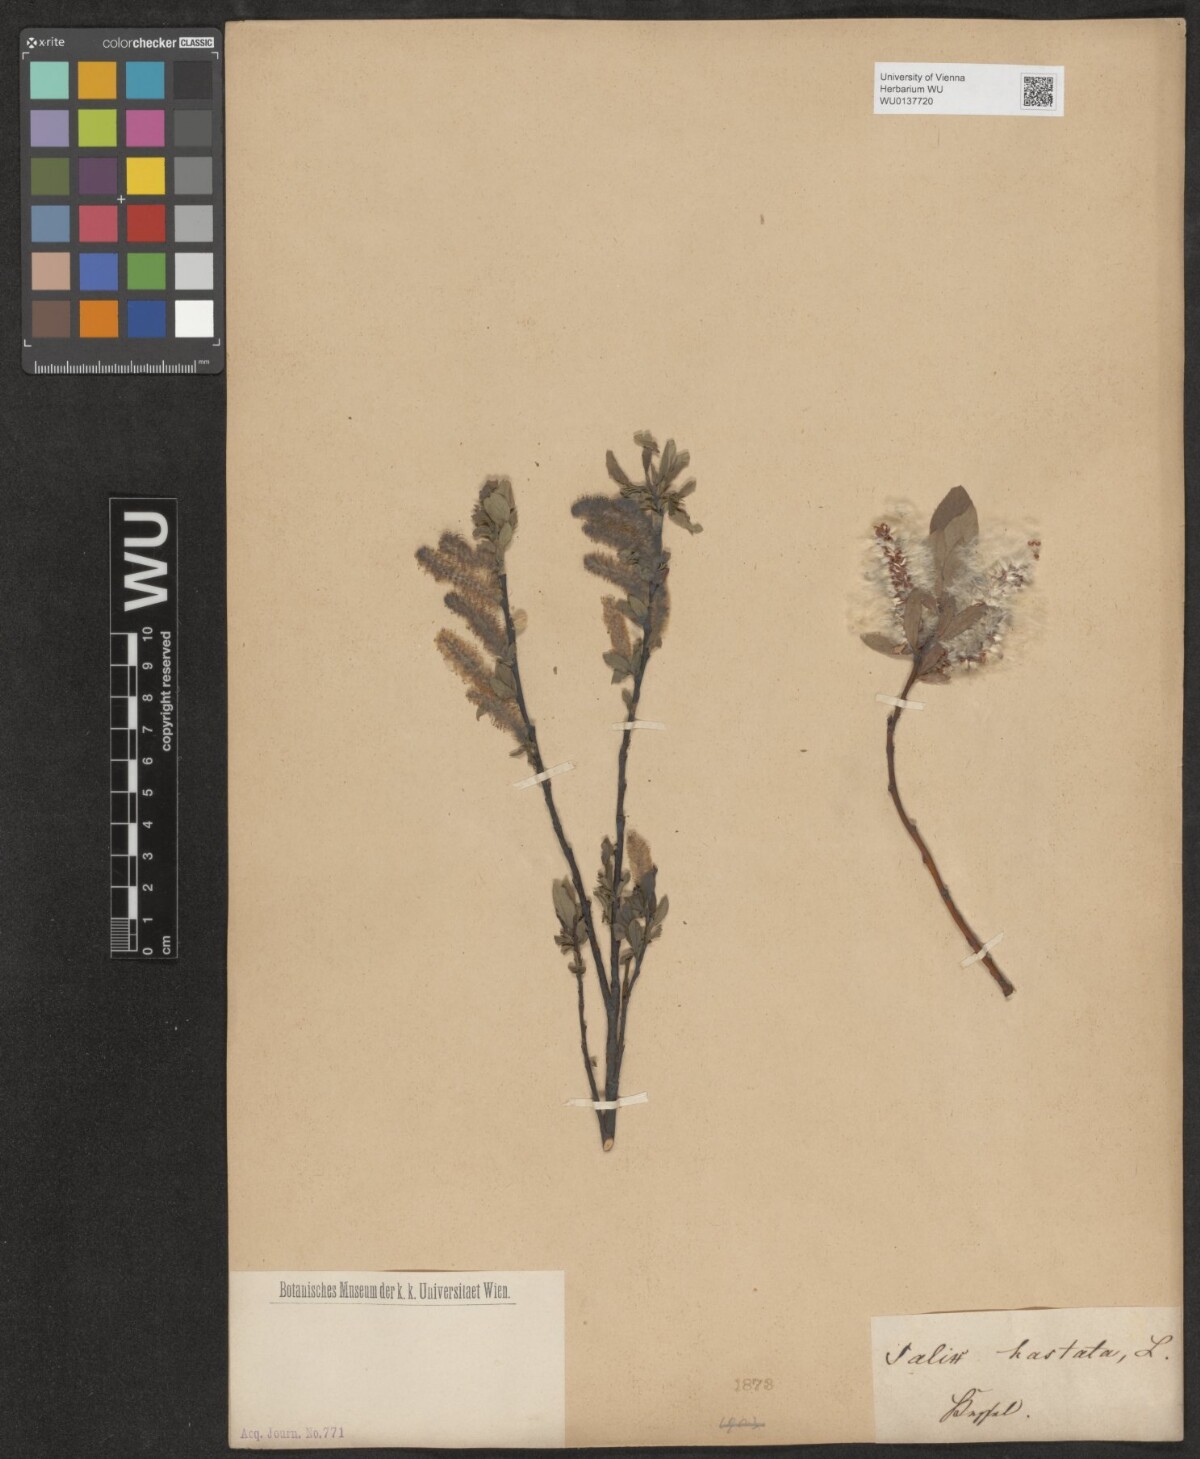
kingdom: Plantae
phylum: Tracheophyta
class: Magnoliopsida
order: Malpighiales
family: Salicaceae
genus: Salix
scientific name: Salix hastata
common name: Halberd willow
